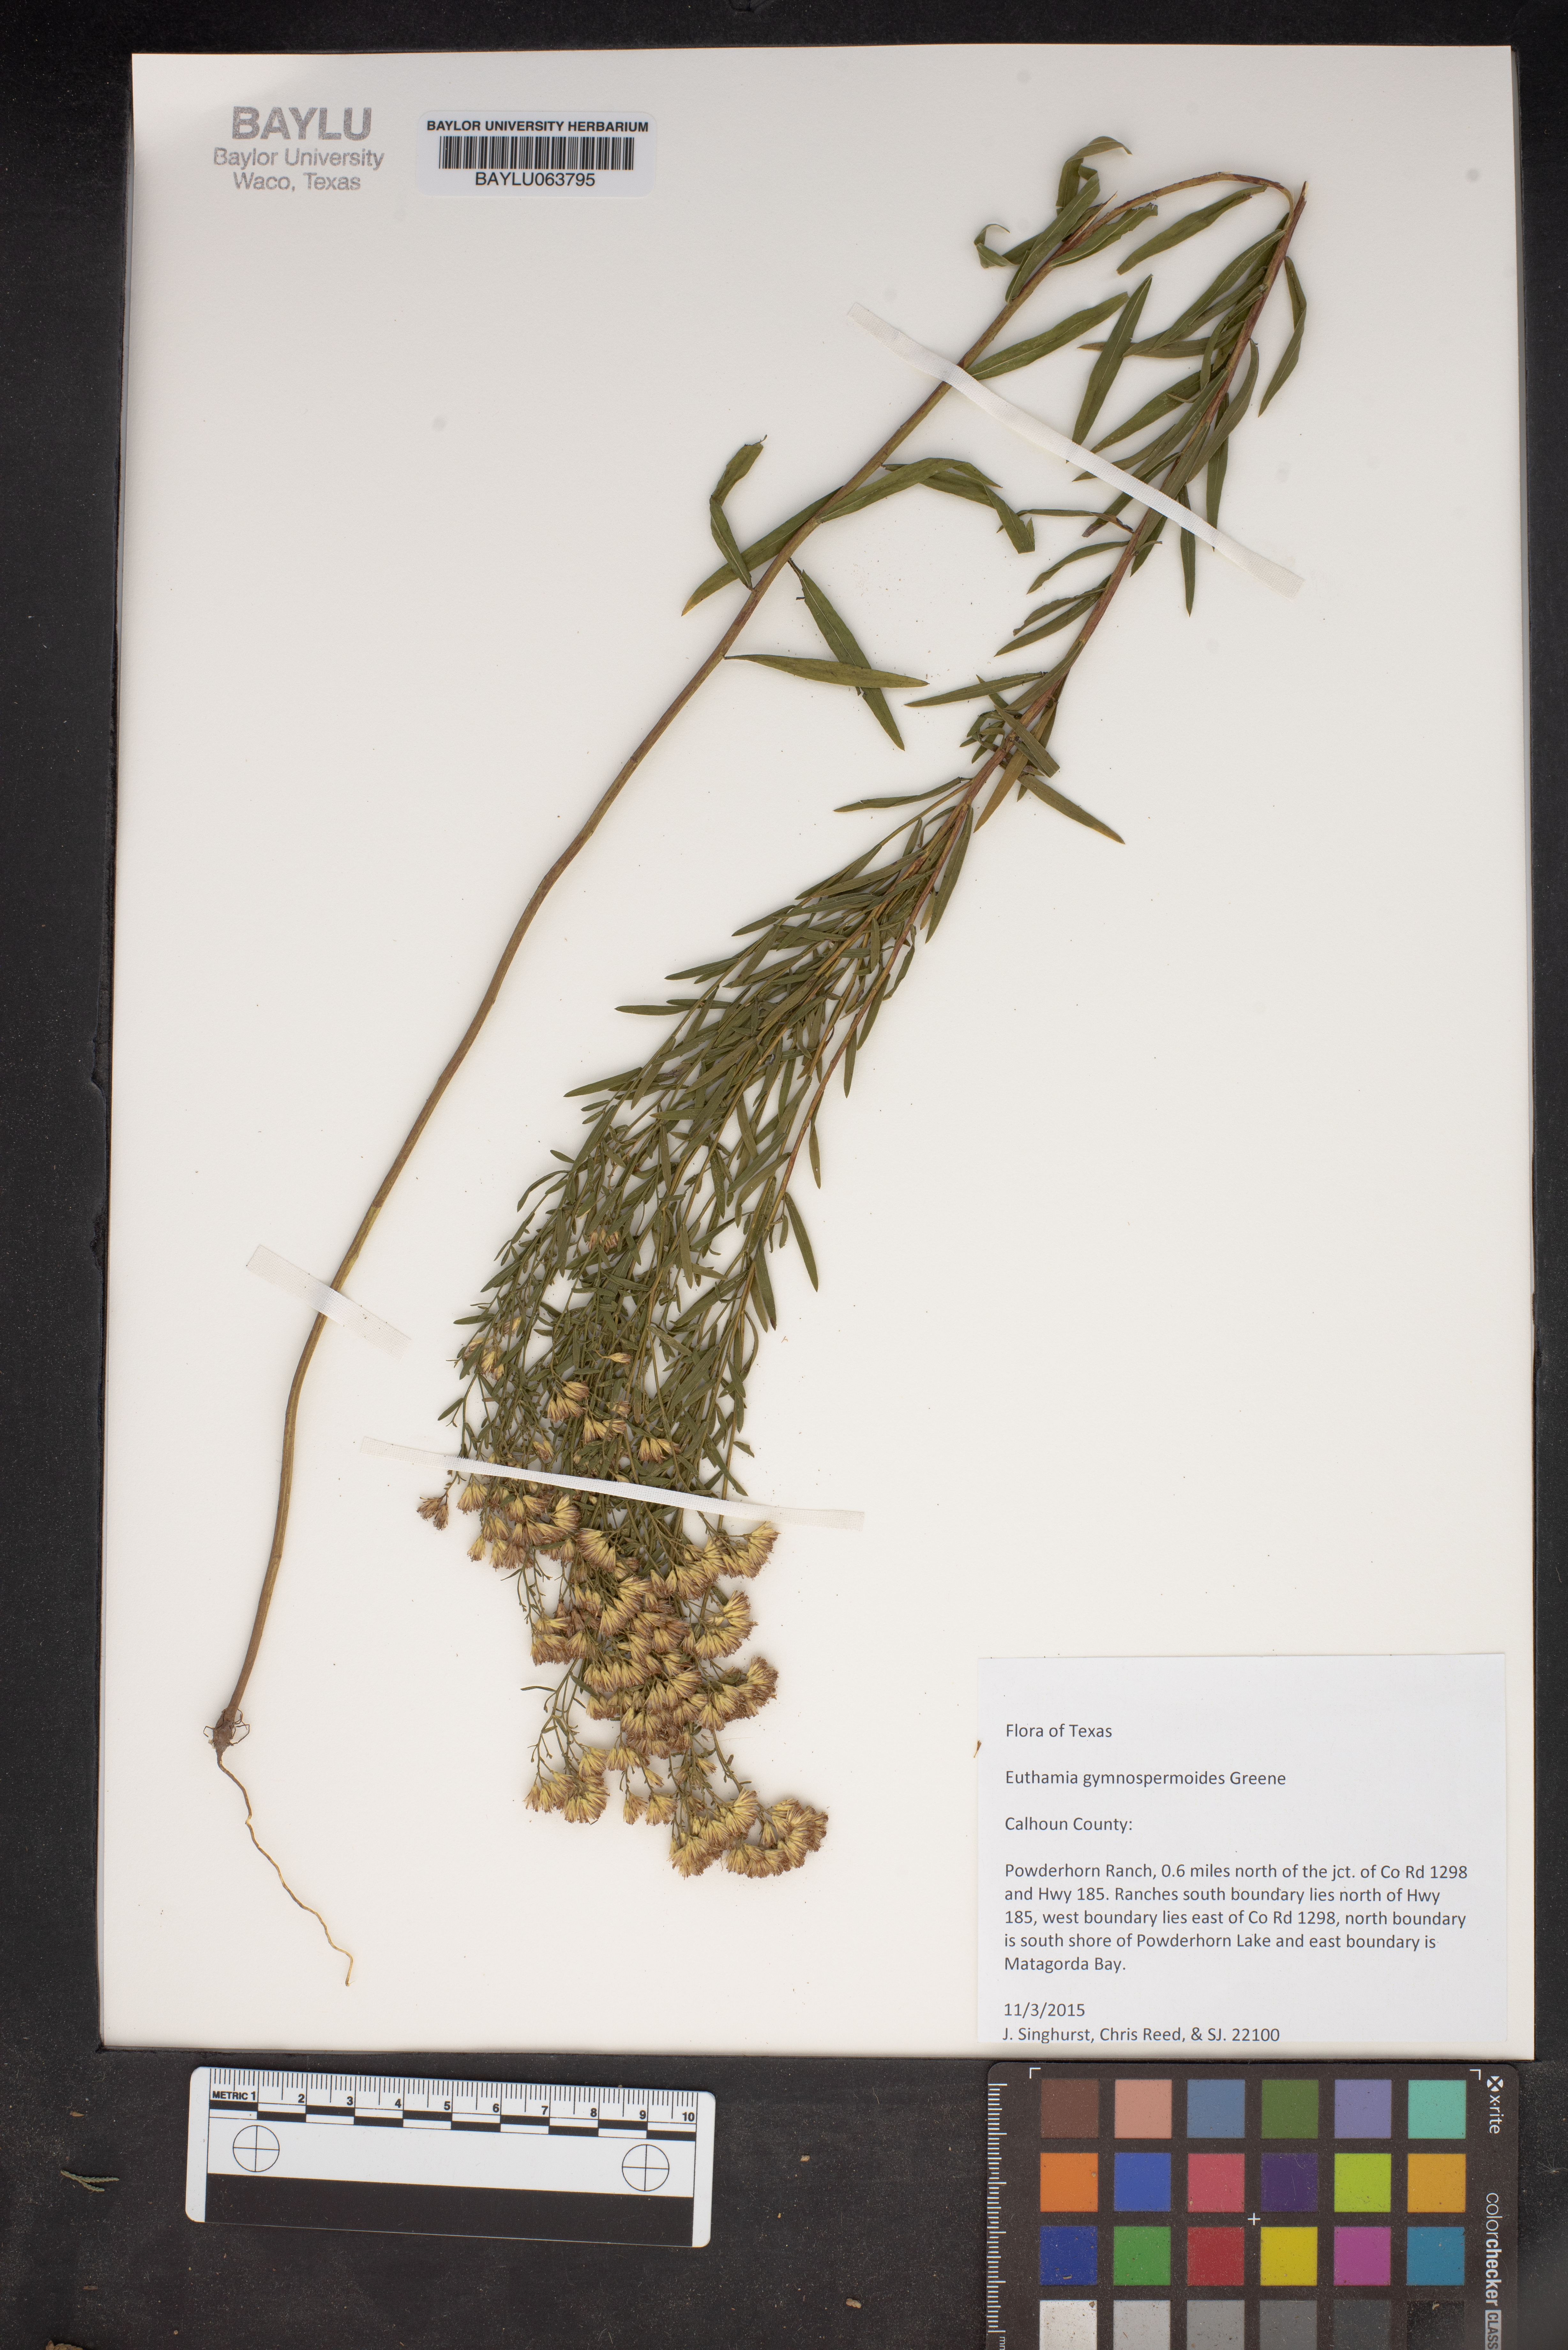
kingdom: Plantae
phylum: Tracheophyta
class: Magnoliopsida
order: Asterales
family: Asteraceae
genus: Euthamia
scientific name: Euthamia gymnospermoides
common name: Great plains goldentop
